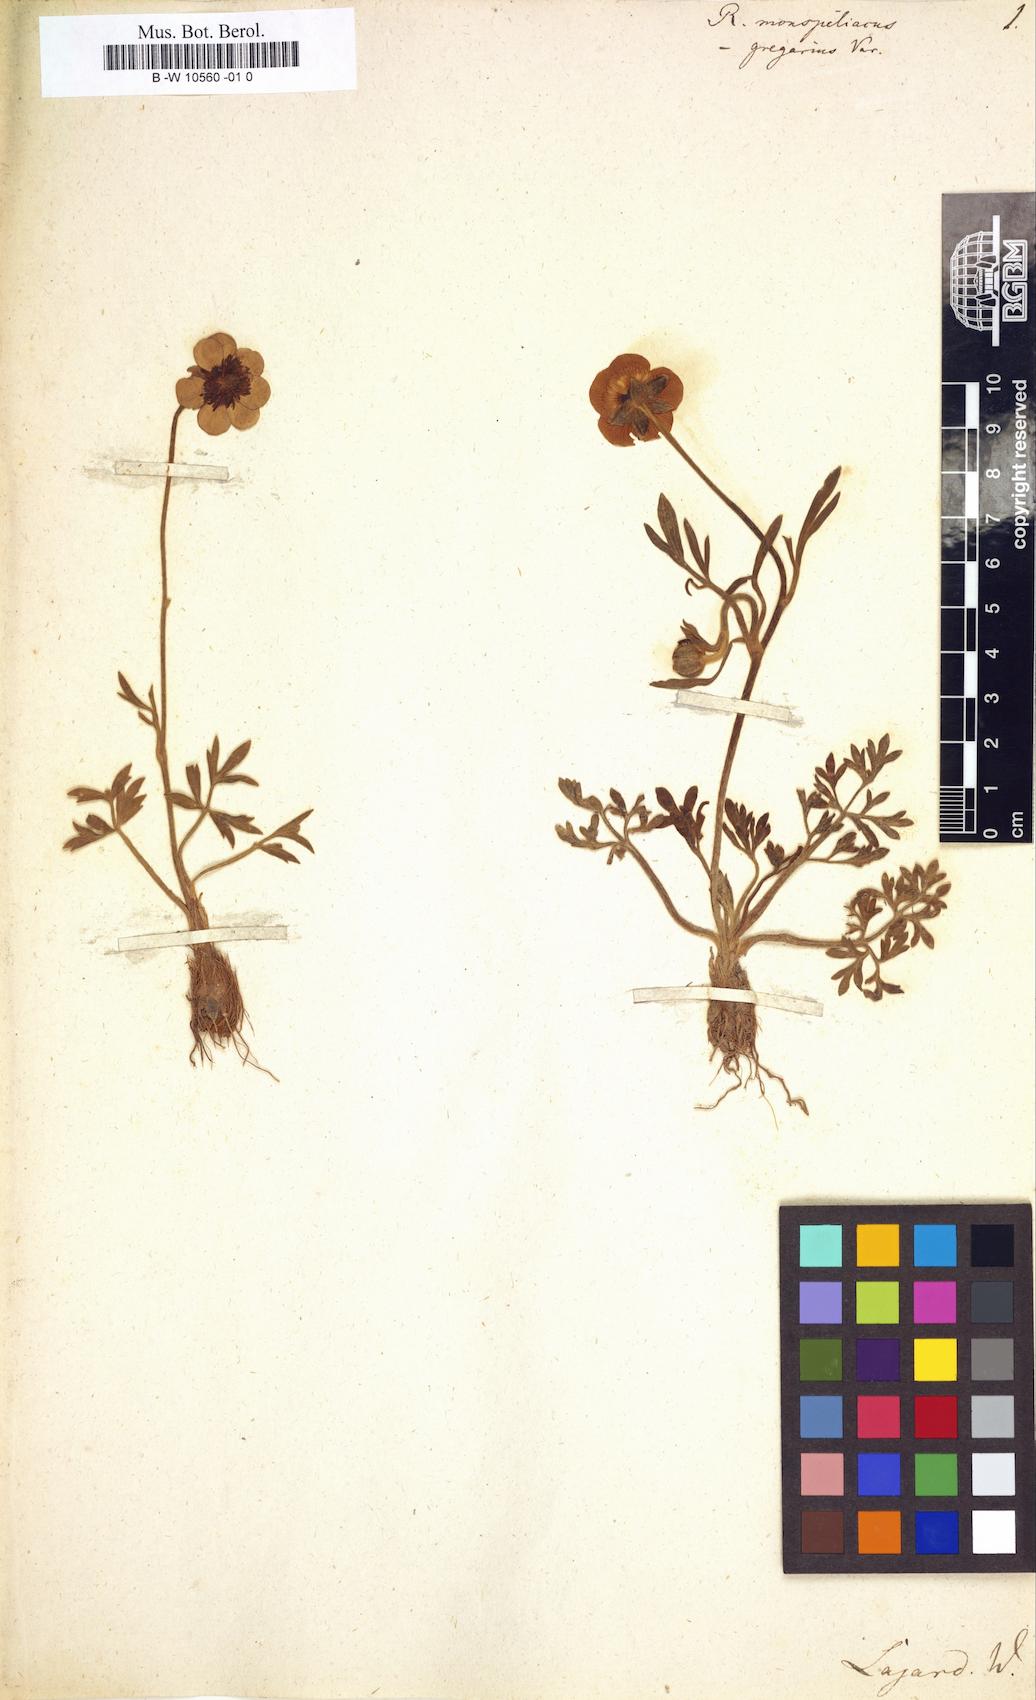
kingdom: Plantae
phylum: Tracheophyta
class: Magnoliopsida
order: Ranunculales
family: Ranunculaceae
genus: Ranunculus
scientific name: Ranunculus monspeliacus
